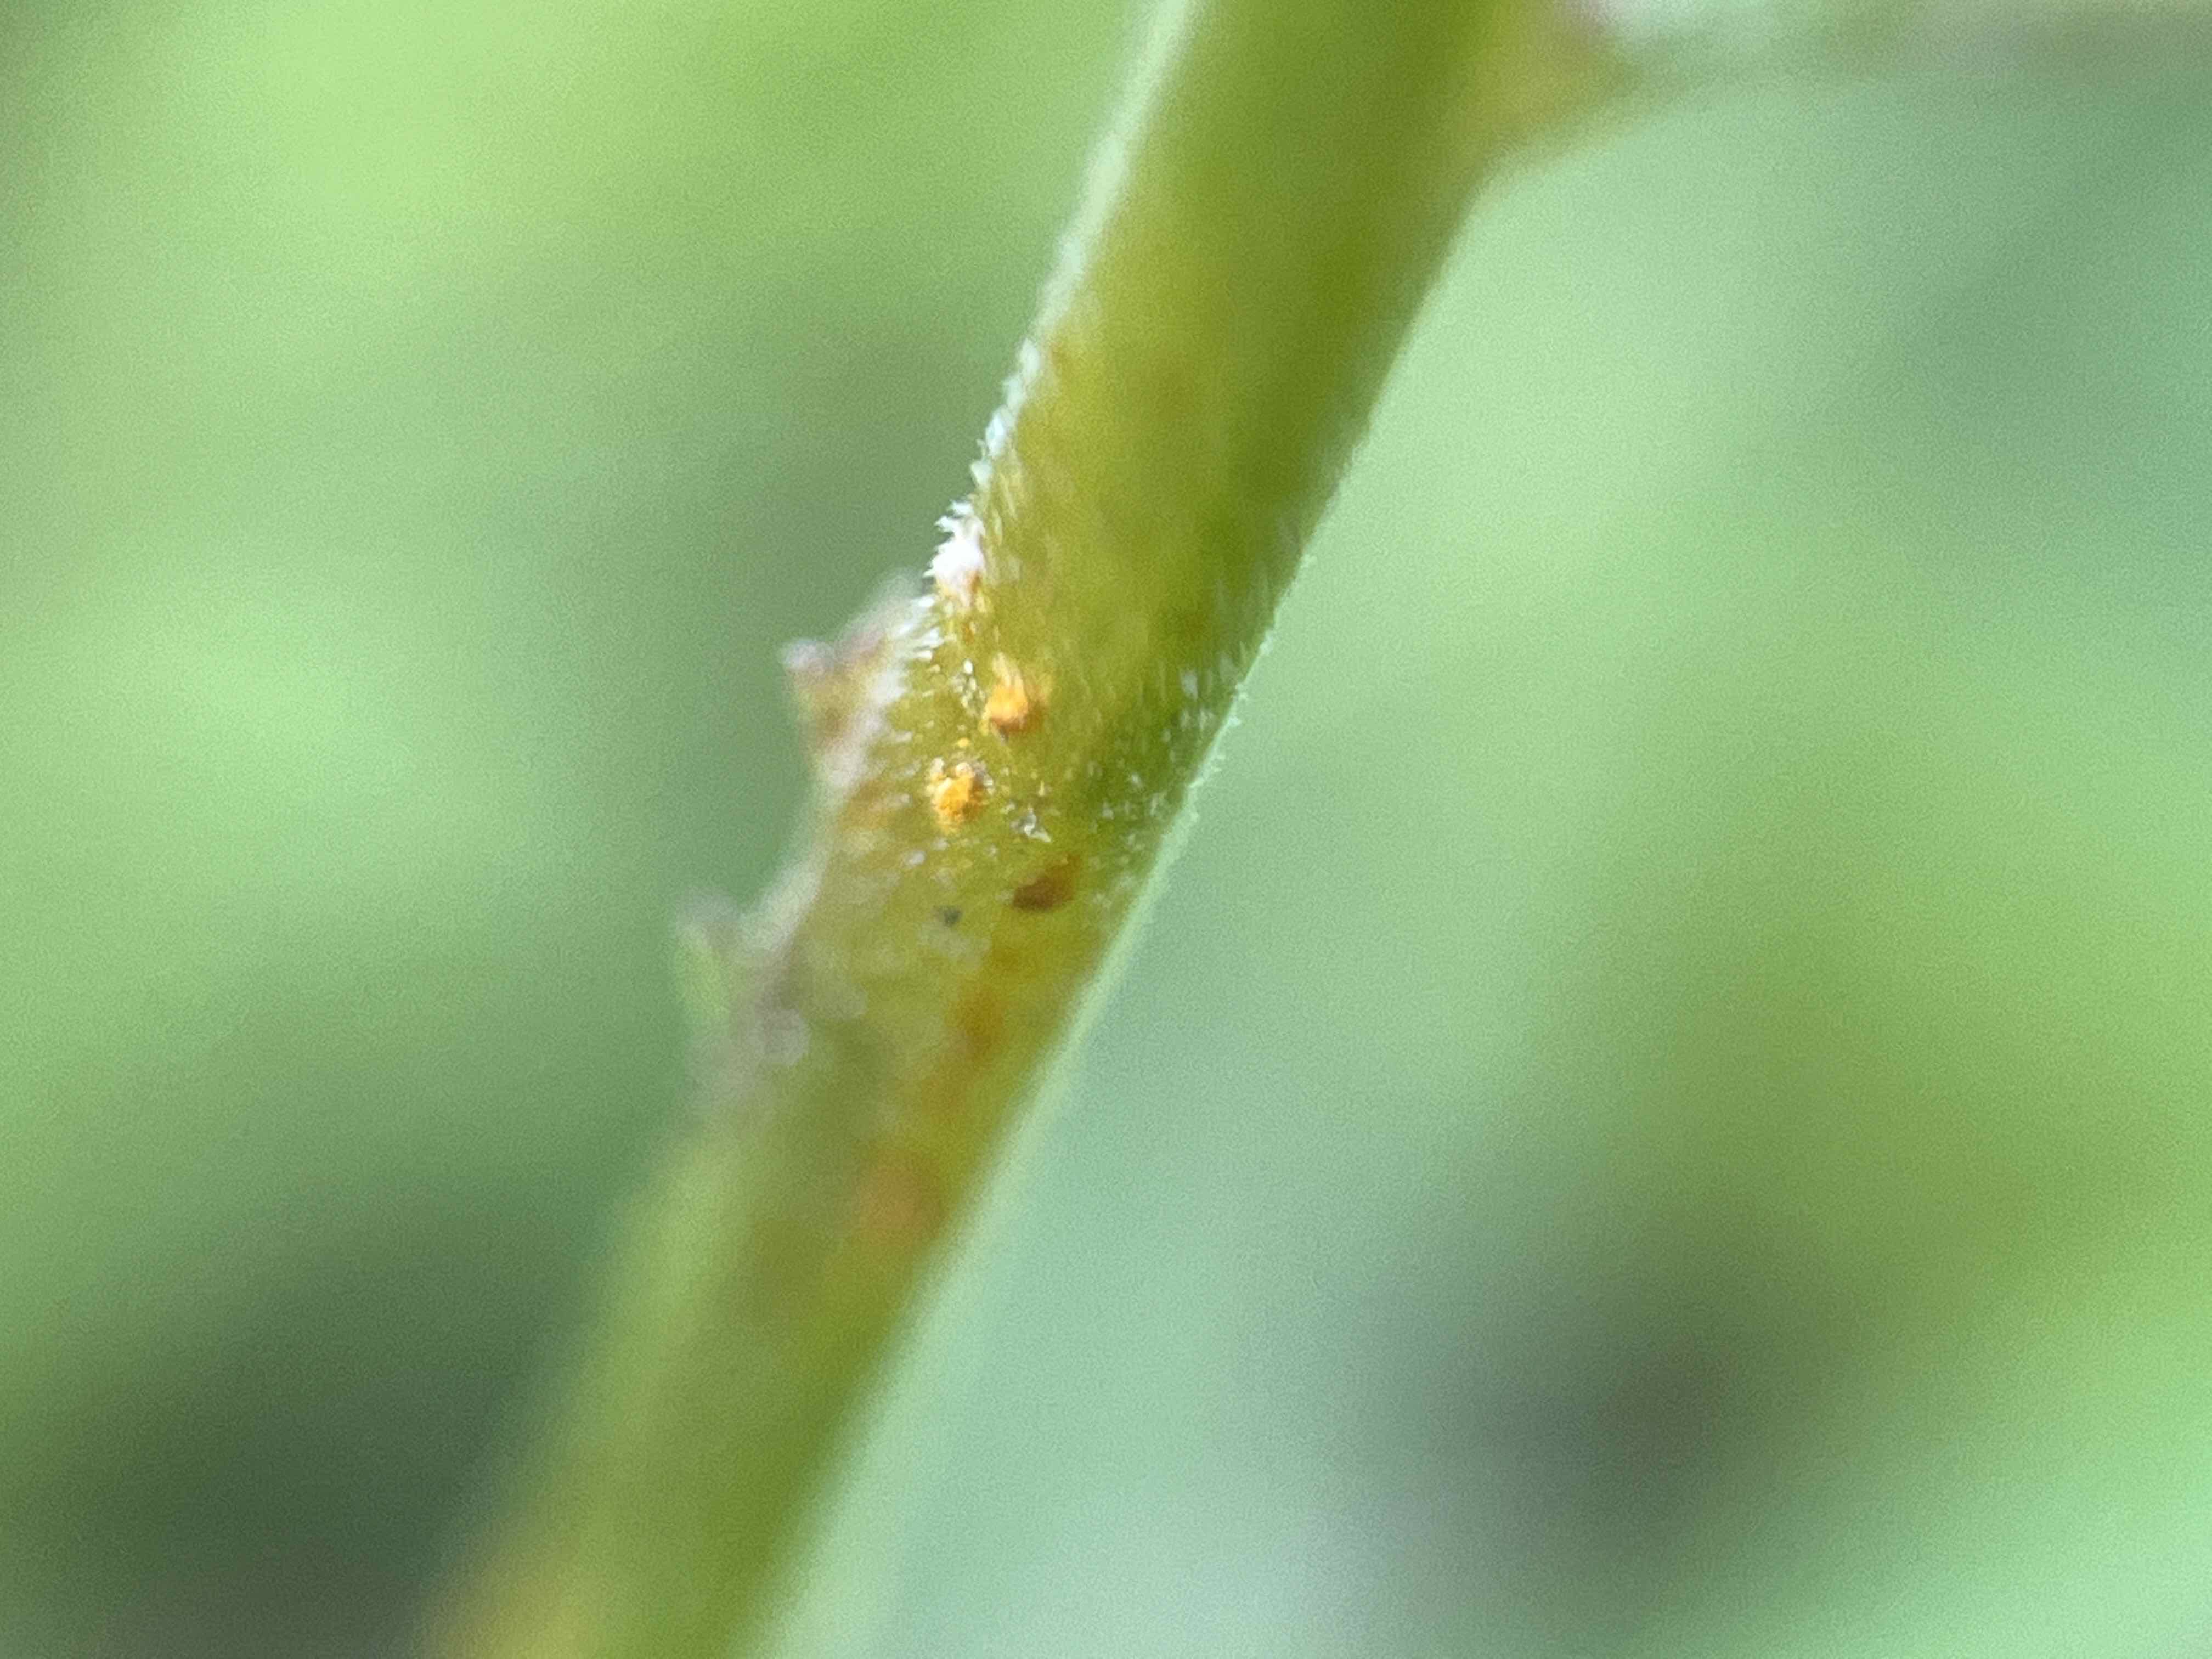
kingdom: Fungi
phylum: Basidiomycota
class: Pucciniomycetes
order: Pucciniales
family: Coleosporiaceae
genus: Coleosporium
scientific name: Coleosporium campanulae-rotundifoliae
